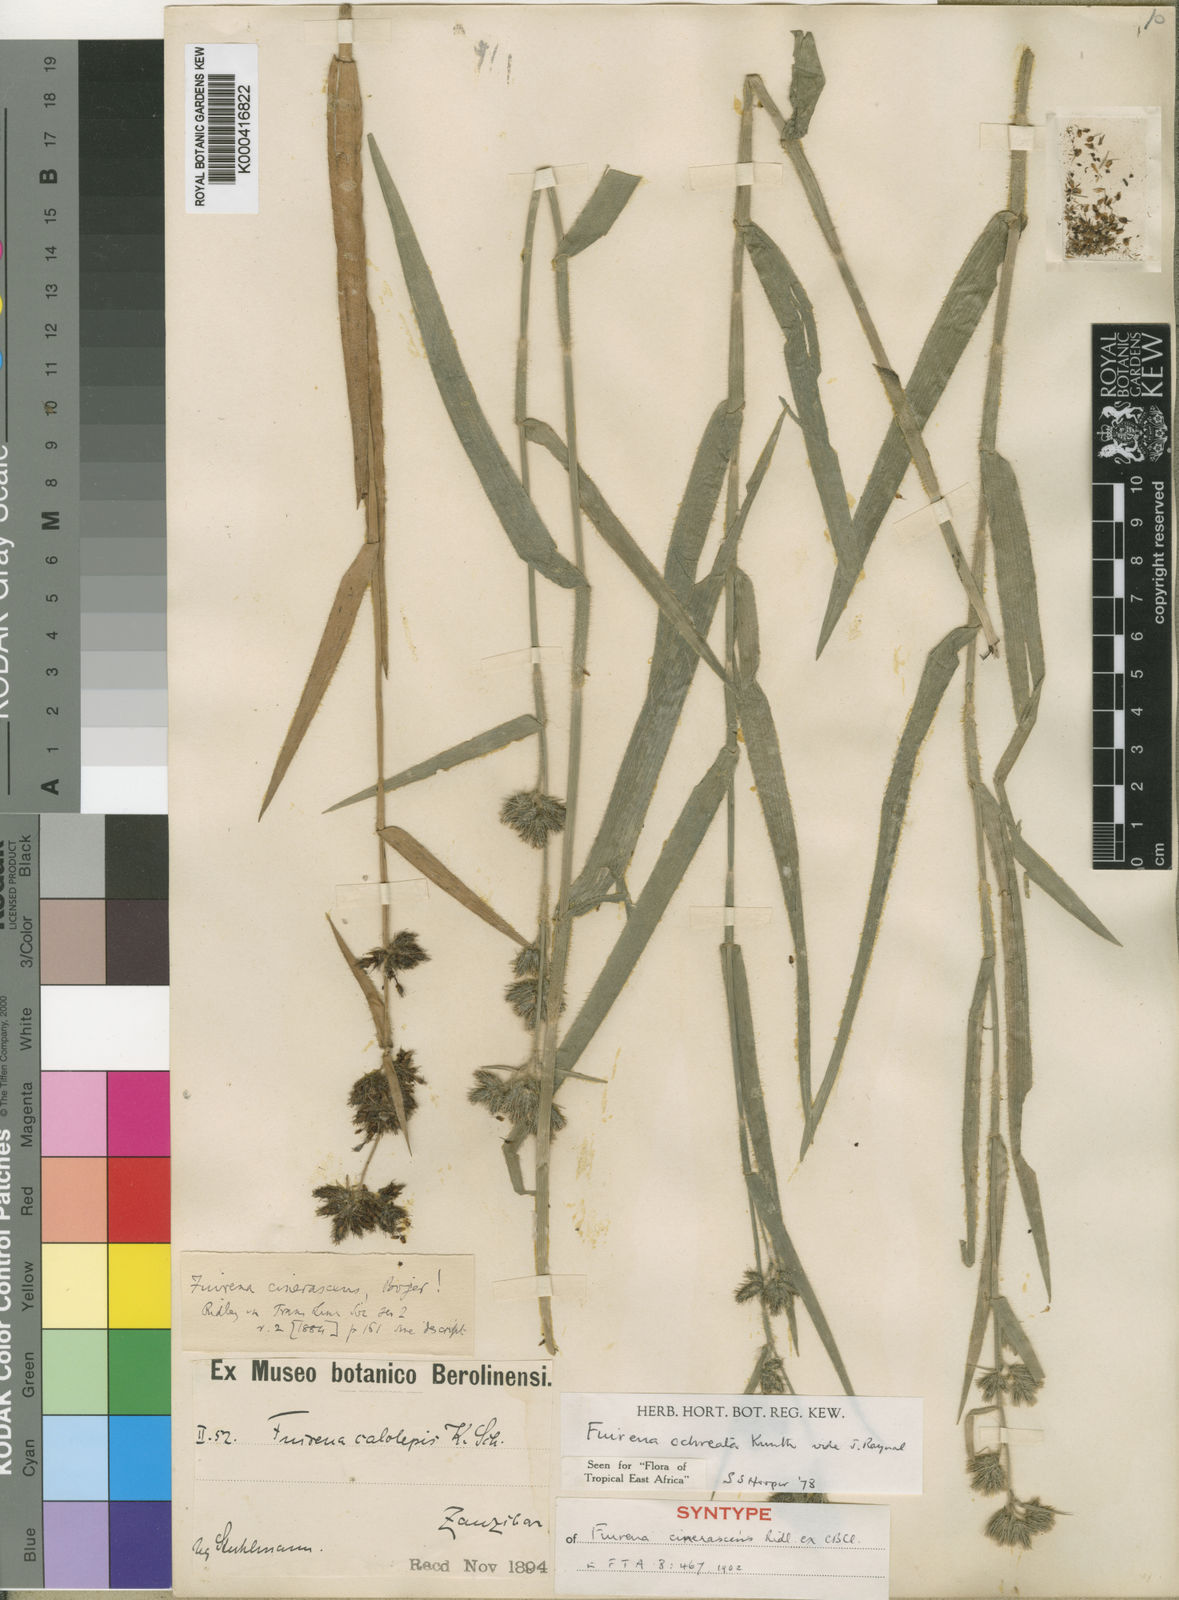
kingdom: Plantae
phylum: Tracheophyta
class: Liliopsida
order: Poales
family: Cyperaceae
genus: Fuirena
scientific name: Fuirena ochreata
